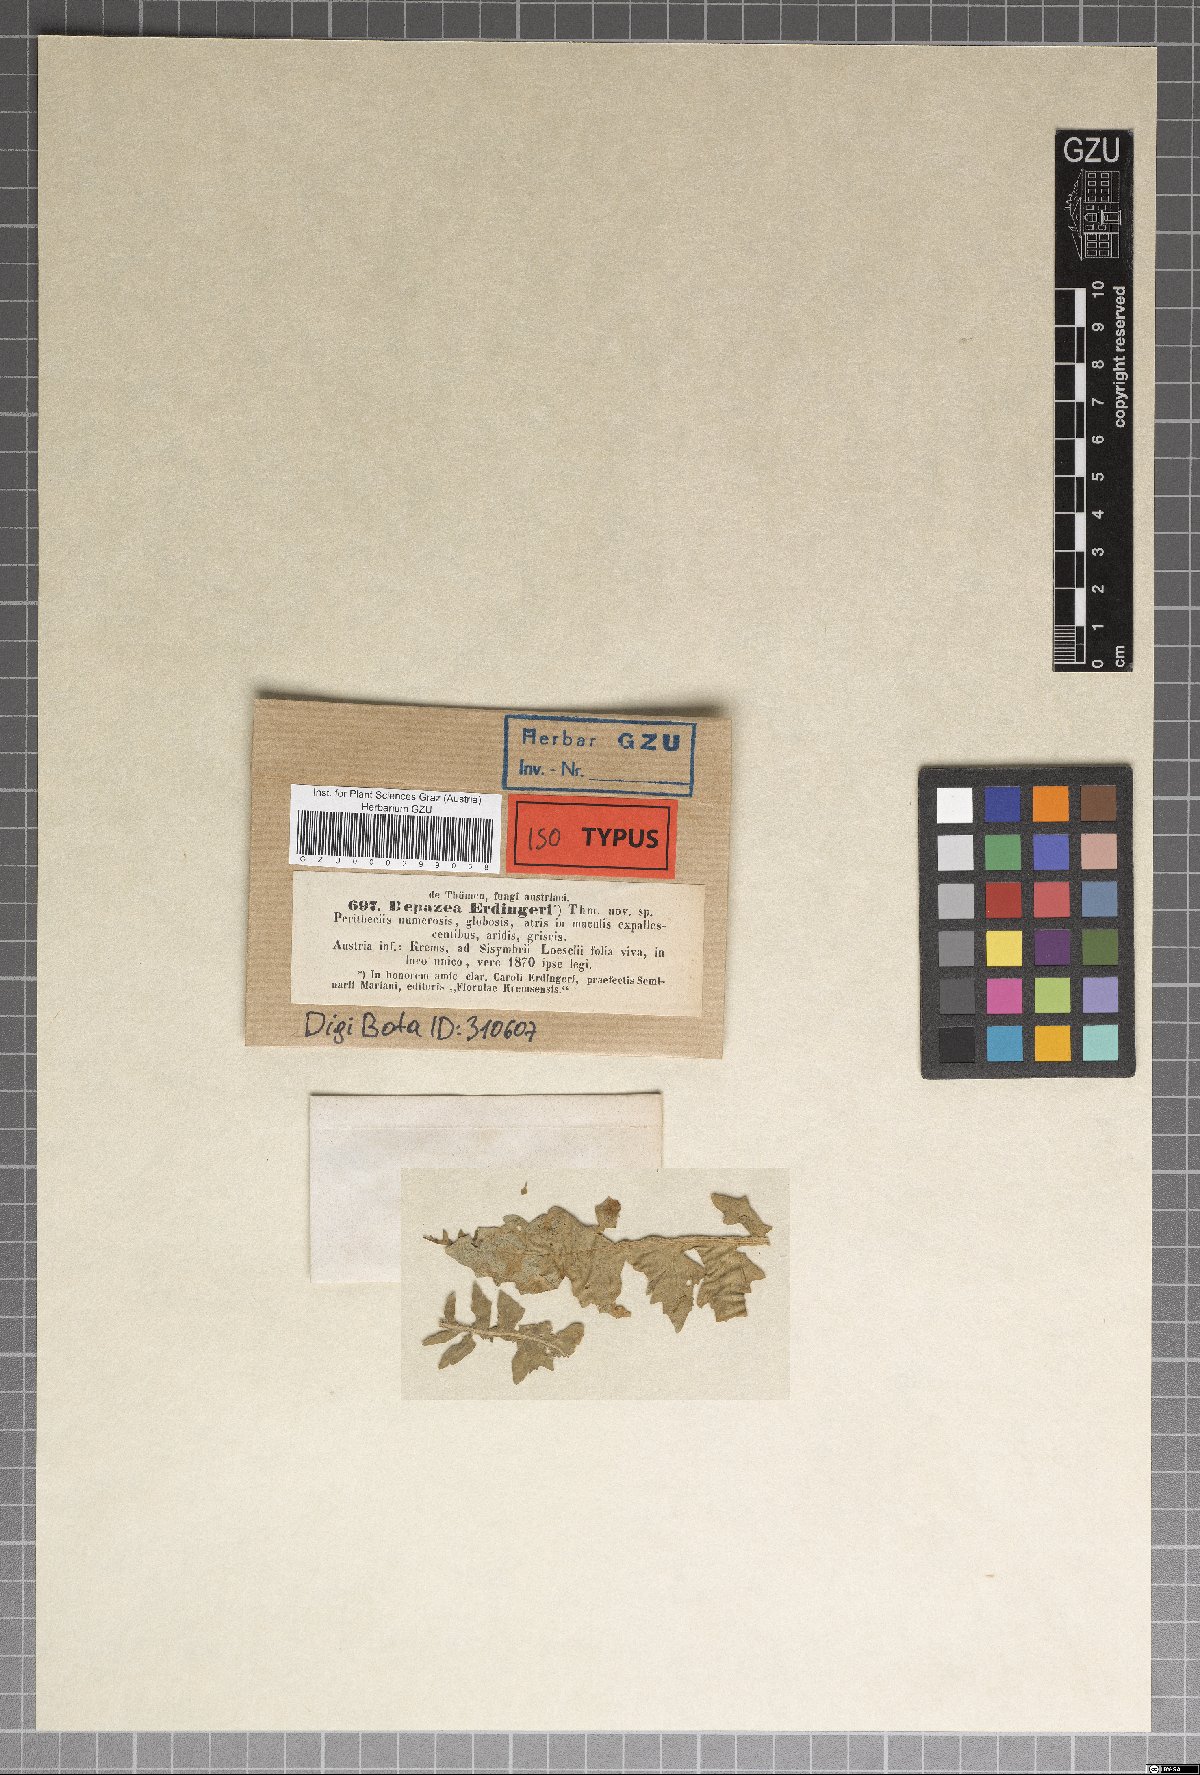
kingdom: Fungi
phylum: Ascomycota
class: Sordariomycetes
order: Diaporthales
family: Gnomoniaceae
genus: Depazea
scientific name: Depazea
